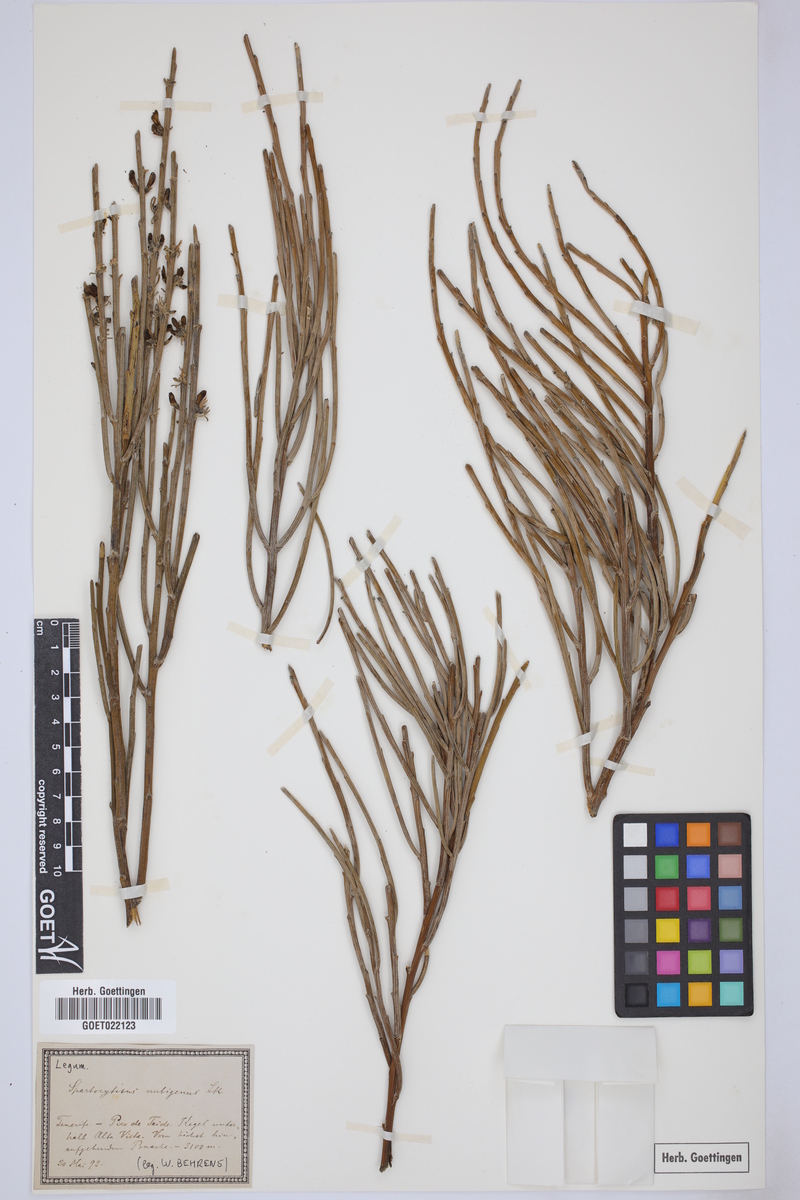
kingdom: Plantae
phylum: Tracheophyta
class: Magnoliopsida
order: Fabales
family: Fabaceae
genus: Cytisus
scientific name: Cytisus supranubius
